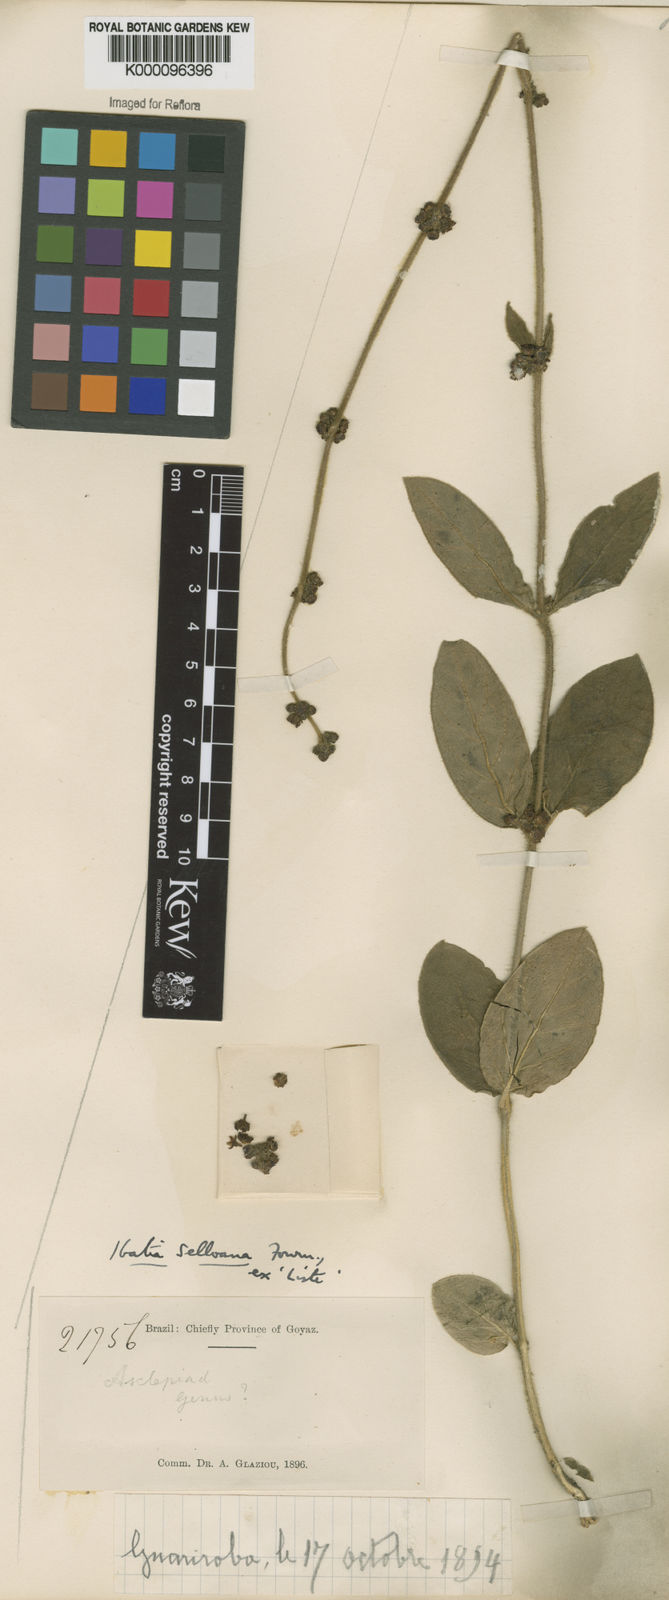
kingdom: Plantae
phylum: Tracheophyta
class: Magnoliopsida
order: Gentianales
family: Apocynaceae
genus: Matelea
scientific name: Matelea
